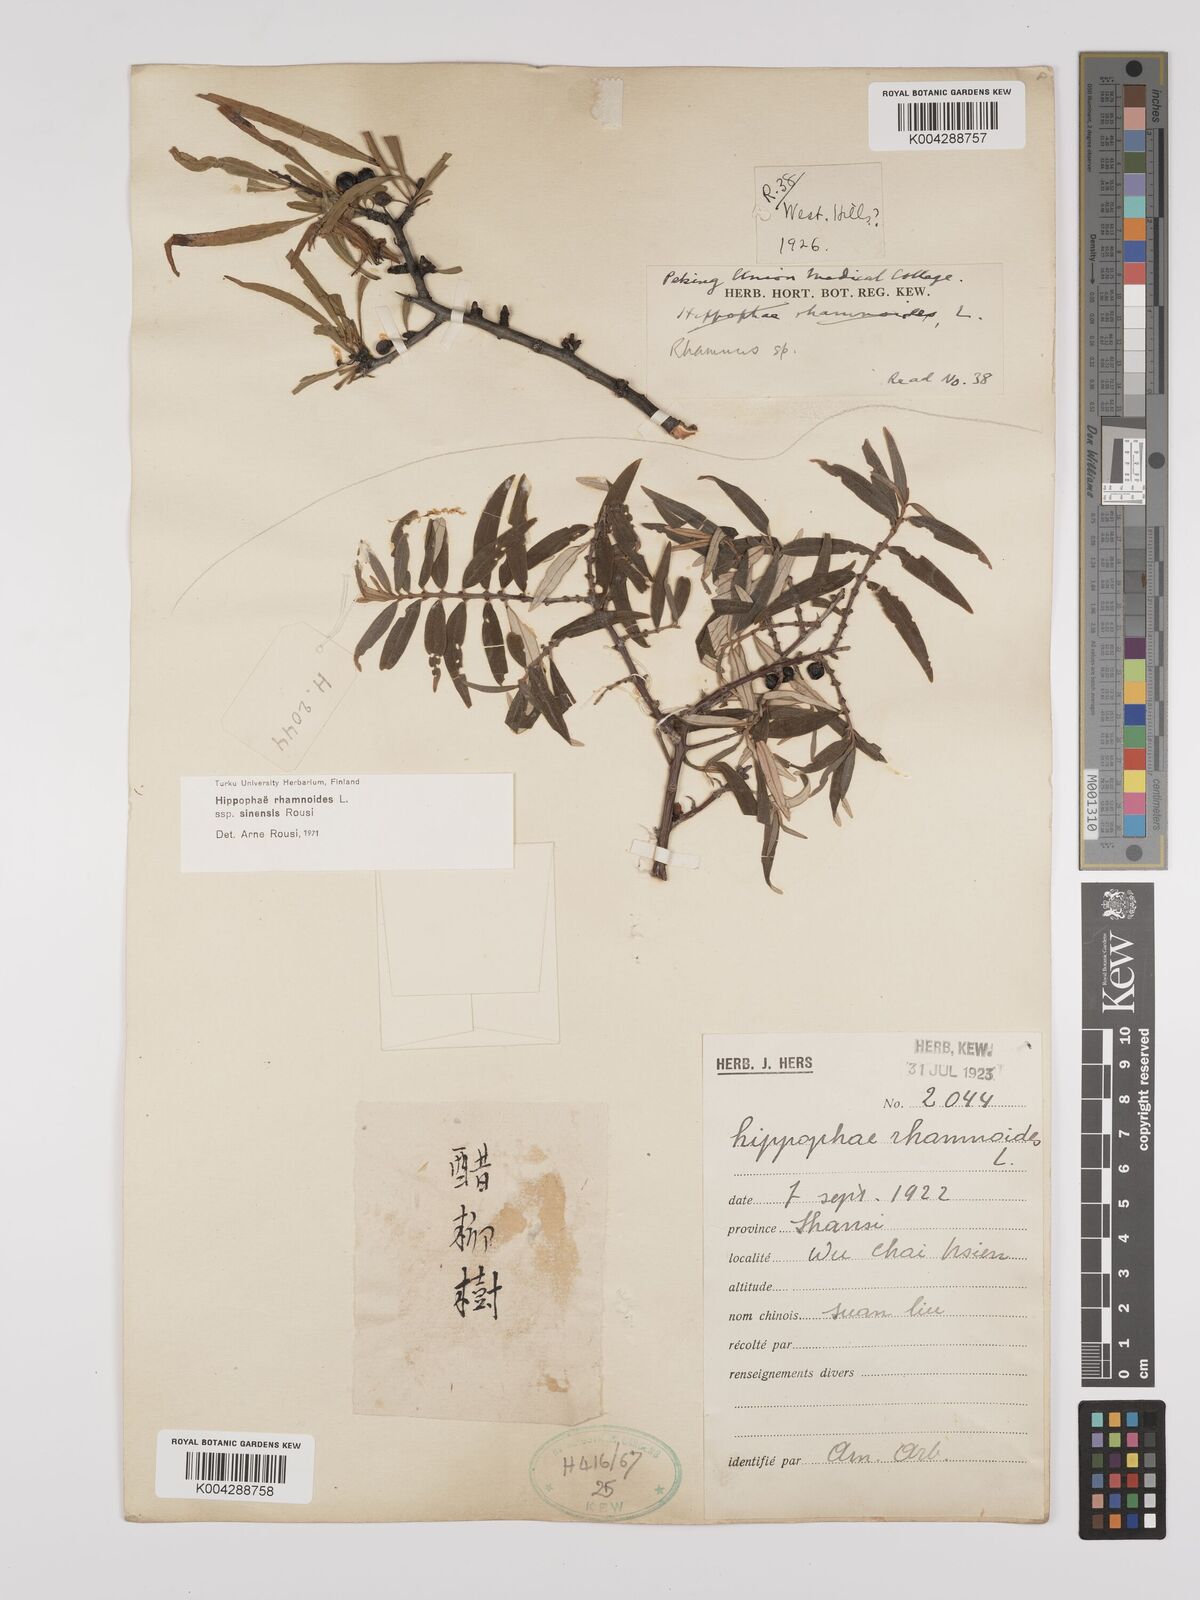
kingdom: Plantae
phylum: Tracheophyta
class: Magnoliopsida
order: Rosales
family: Elaeagnaceae
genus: Hippophae
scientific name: Hippophae rhamnoides
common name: Sea-buckthorn
